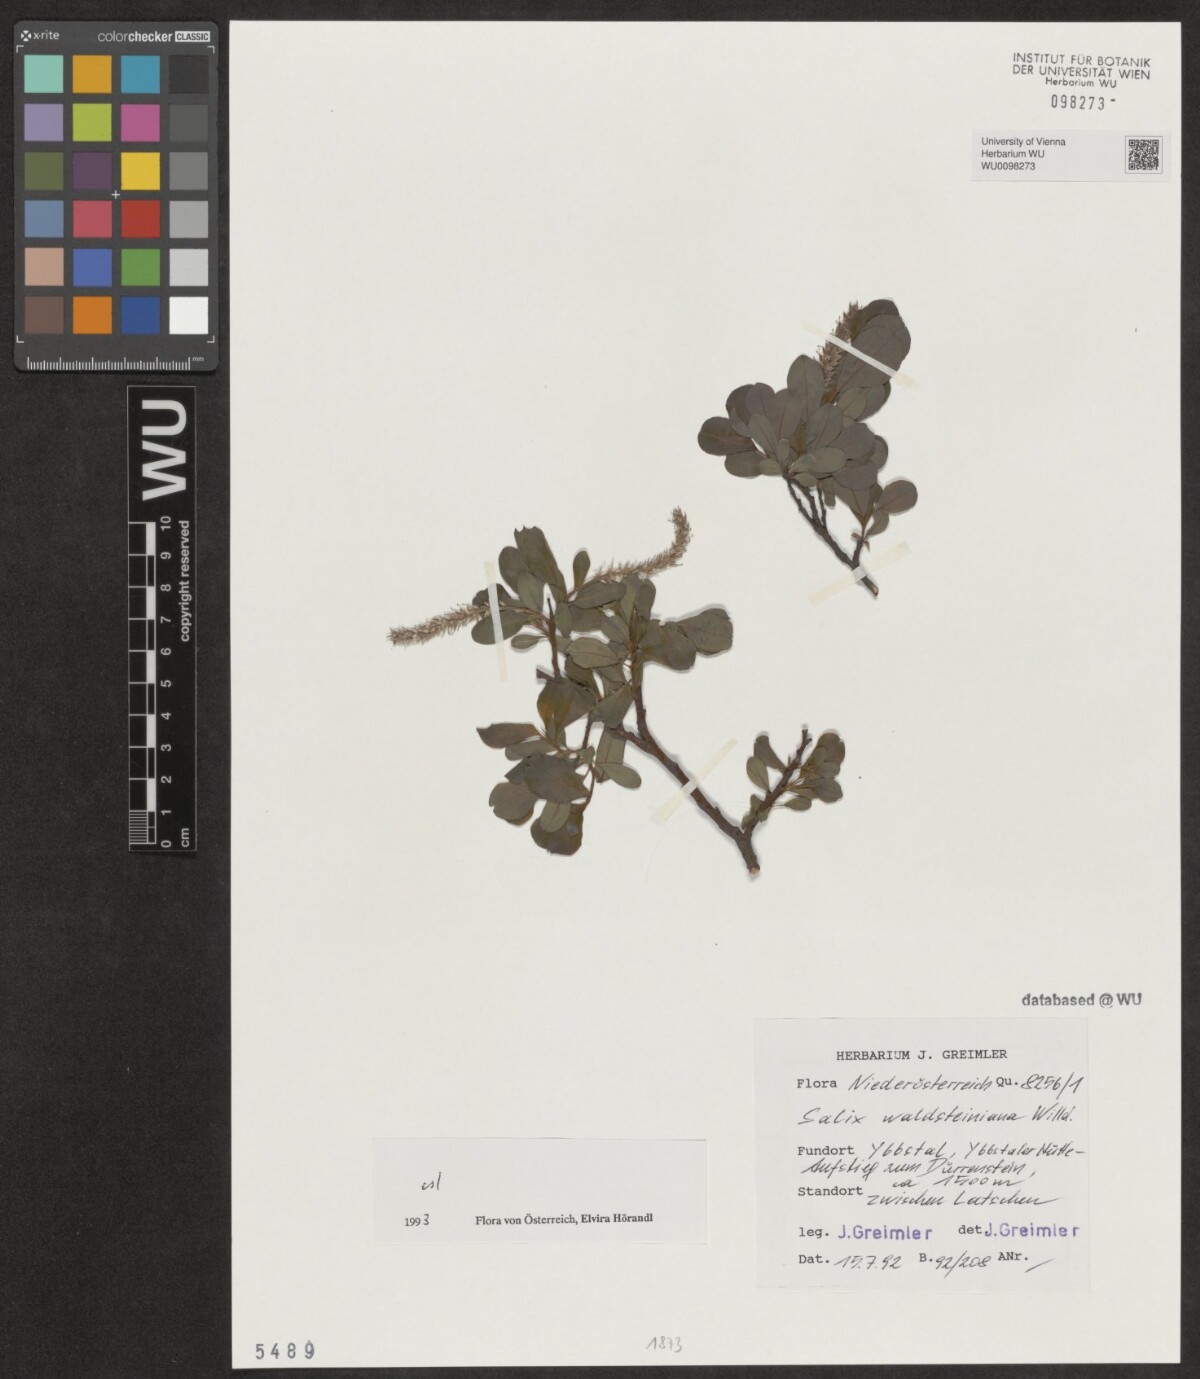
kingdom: Plantae
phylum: Tracheophyta
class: Magnoliopsida
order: Malpighiales
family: Salicaceae
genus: Salix
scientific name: Salix waldsteiniana
